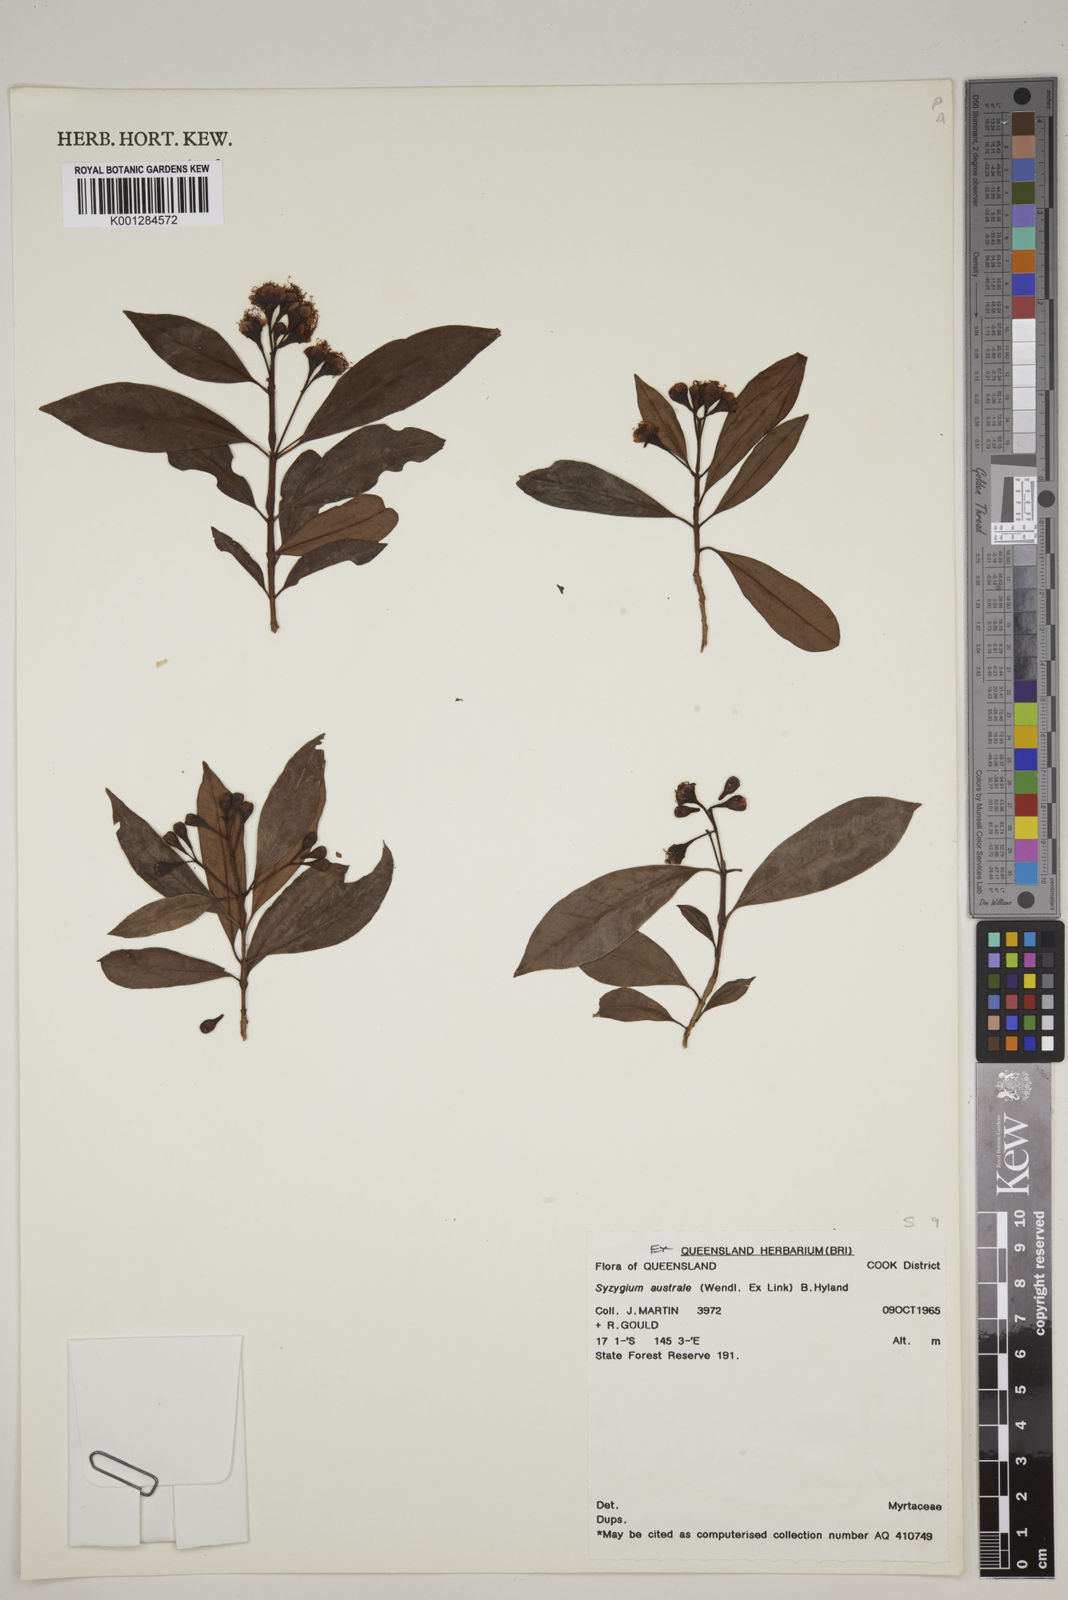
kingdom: Plantae
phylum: Tracheophyta
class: Magnoliopsida
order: Myrtales
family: Myrtaceae
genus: Syzygium
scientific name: Syzygium australe
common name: Australian brush-cherry
